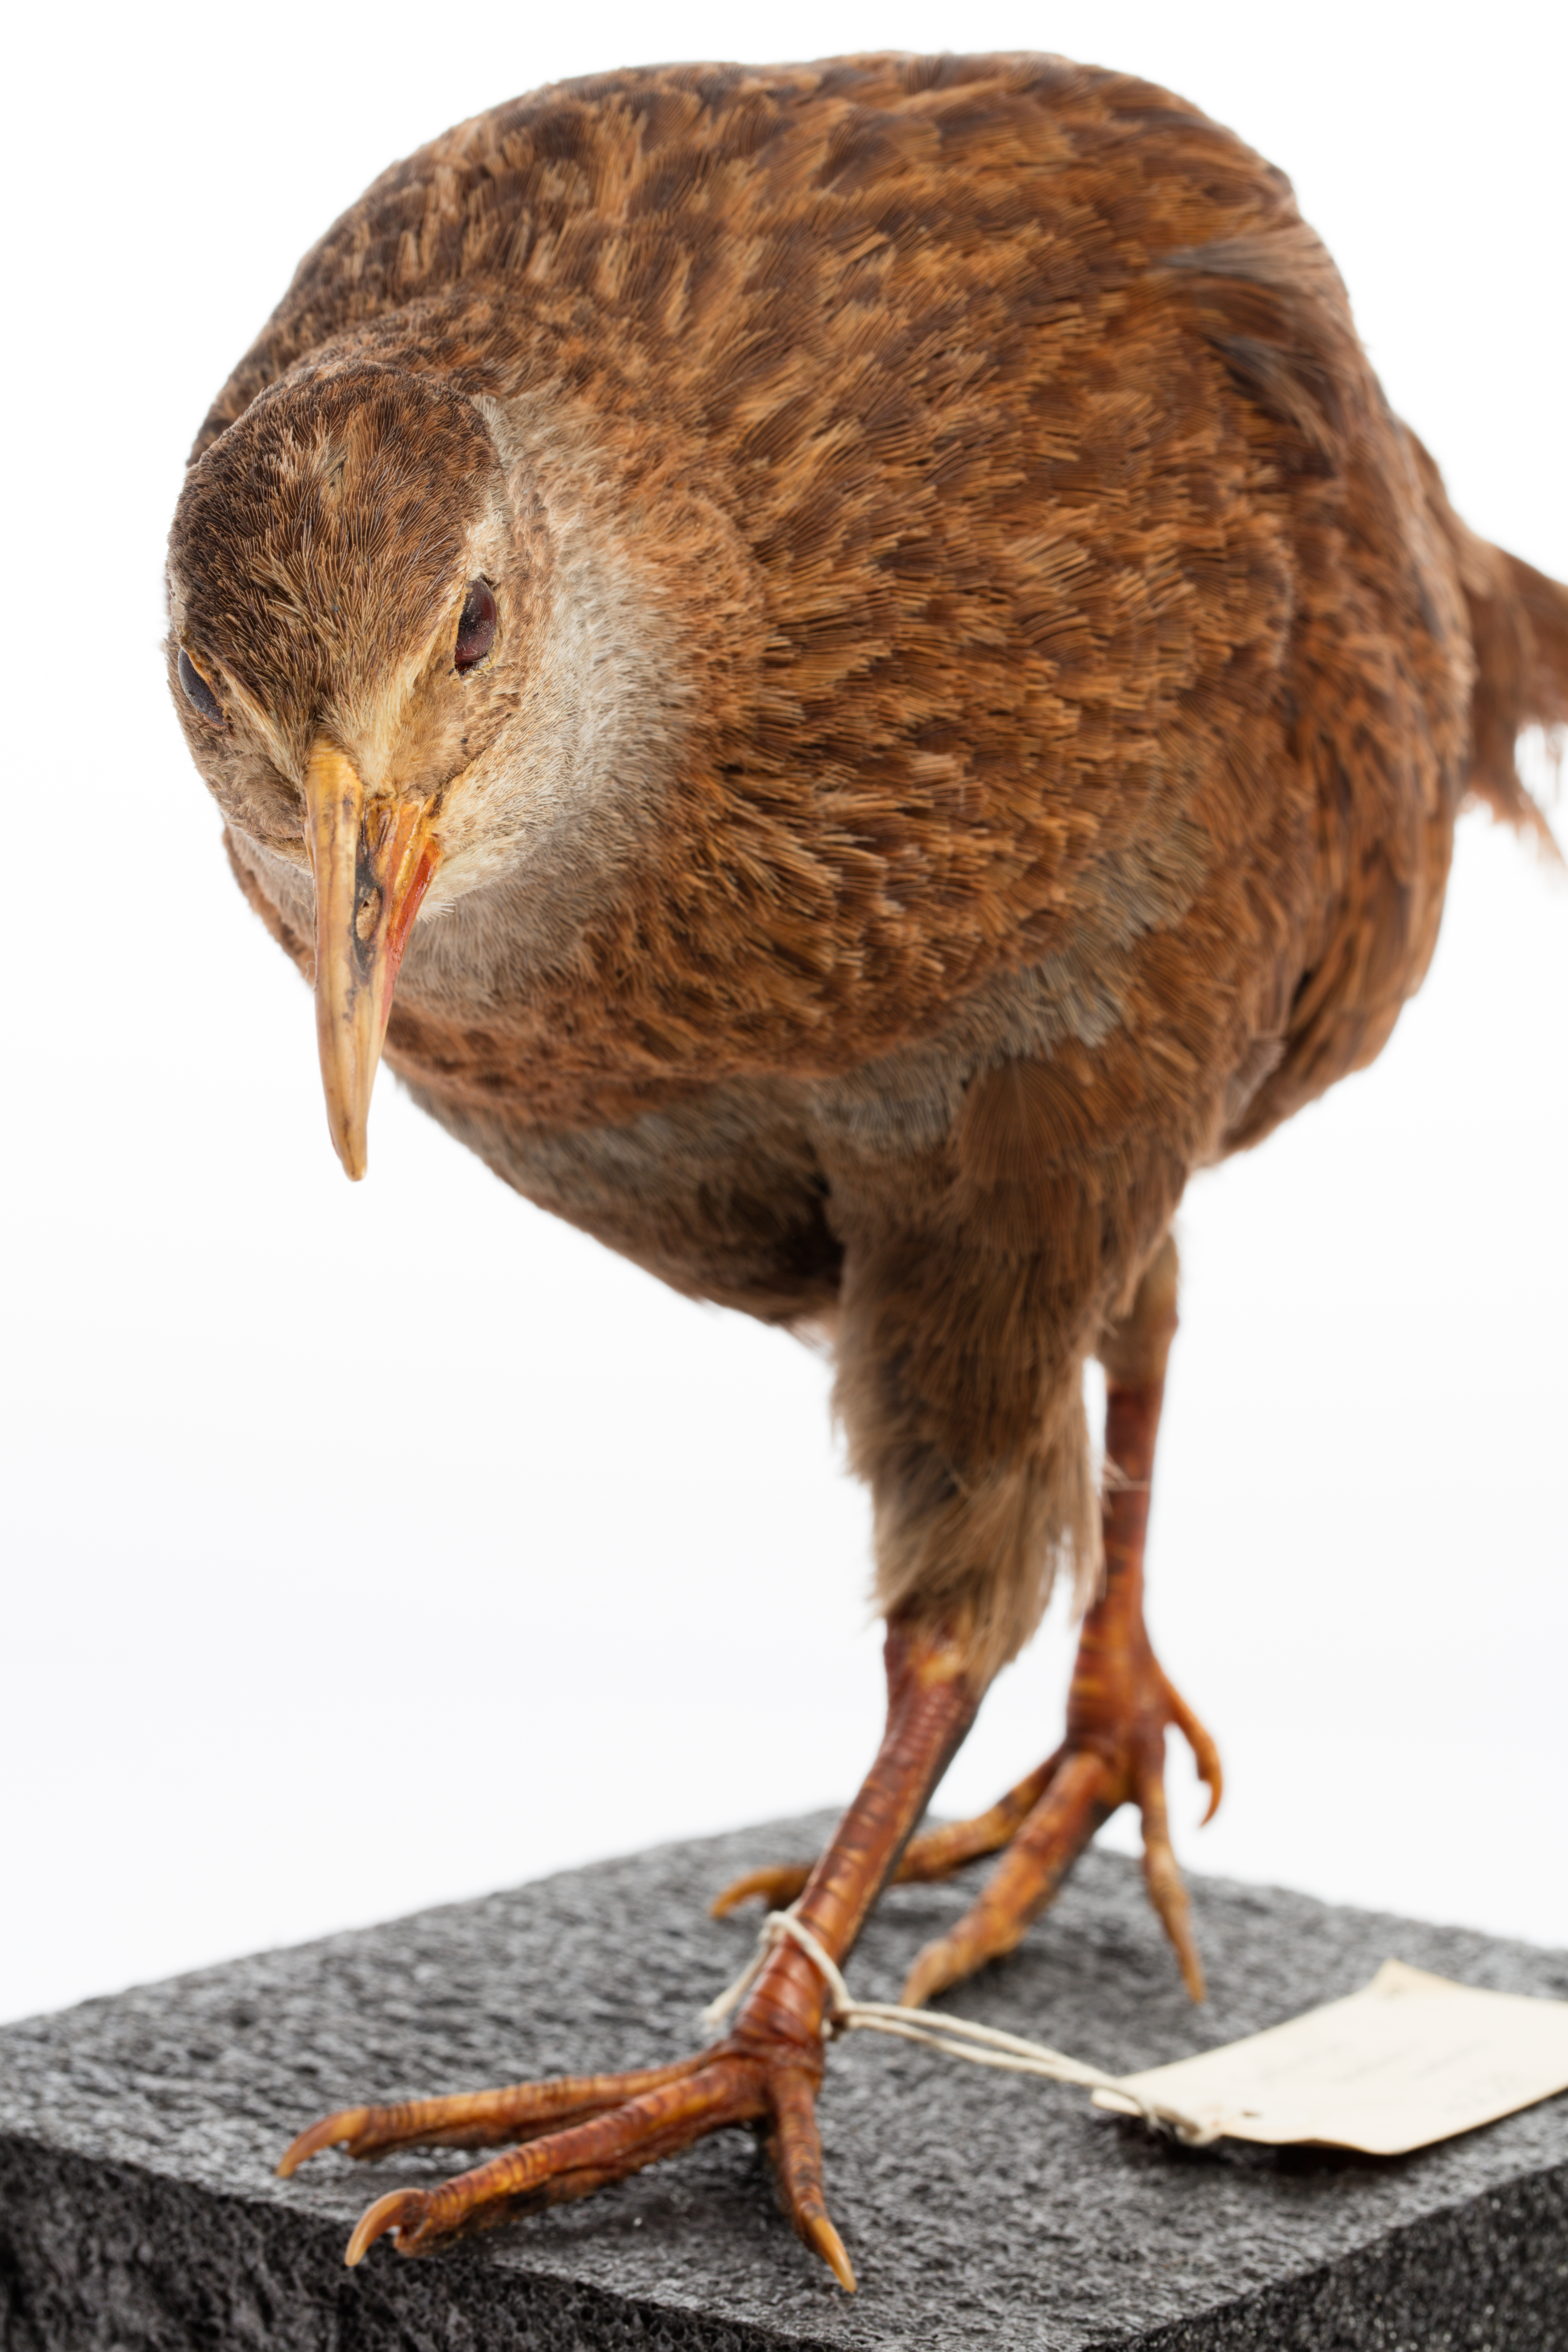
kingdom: Animalia
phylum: Chordata
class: Aves
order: Gruiformes
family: Rallidae
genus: Gallirallus
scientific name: Gallirallus australis
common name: Weka
